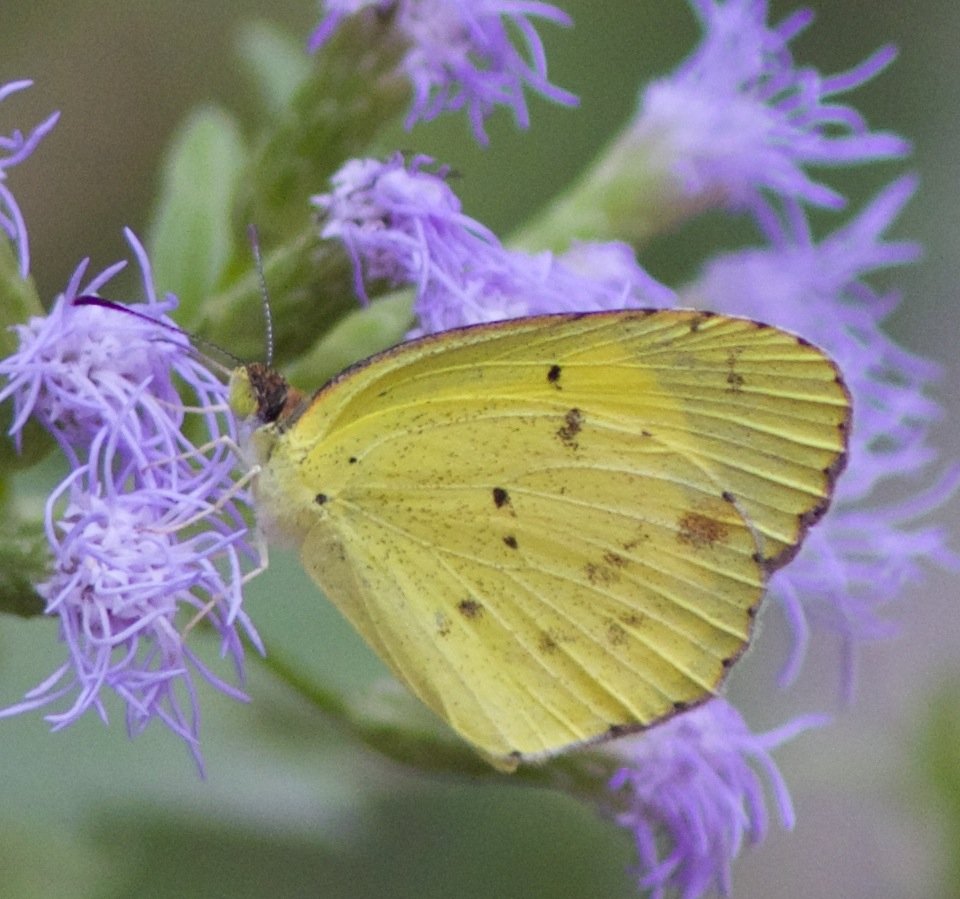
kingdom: Animalia
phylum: Arthropoda
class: Insecta
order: Lepidoptera
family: Pieridae
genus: Pyrisitia
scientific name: Pyrisitia lisa
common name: Little Yellow
